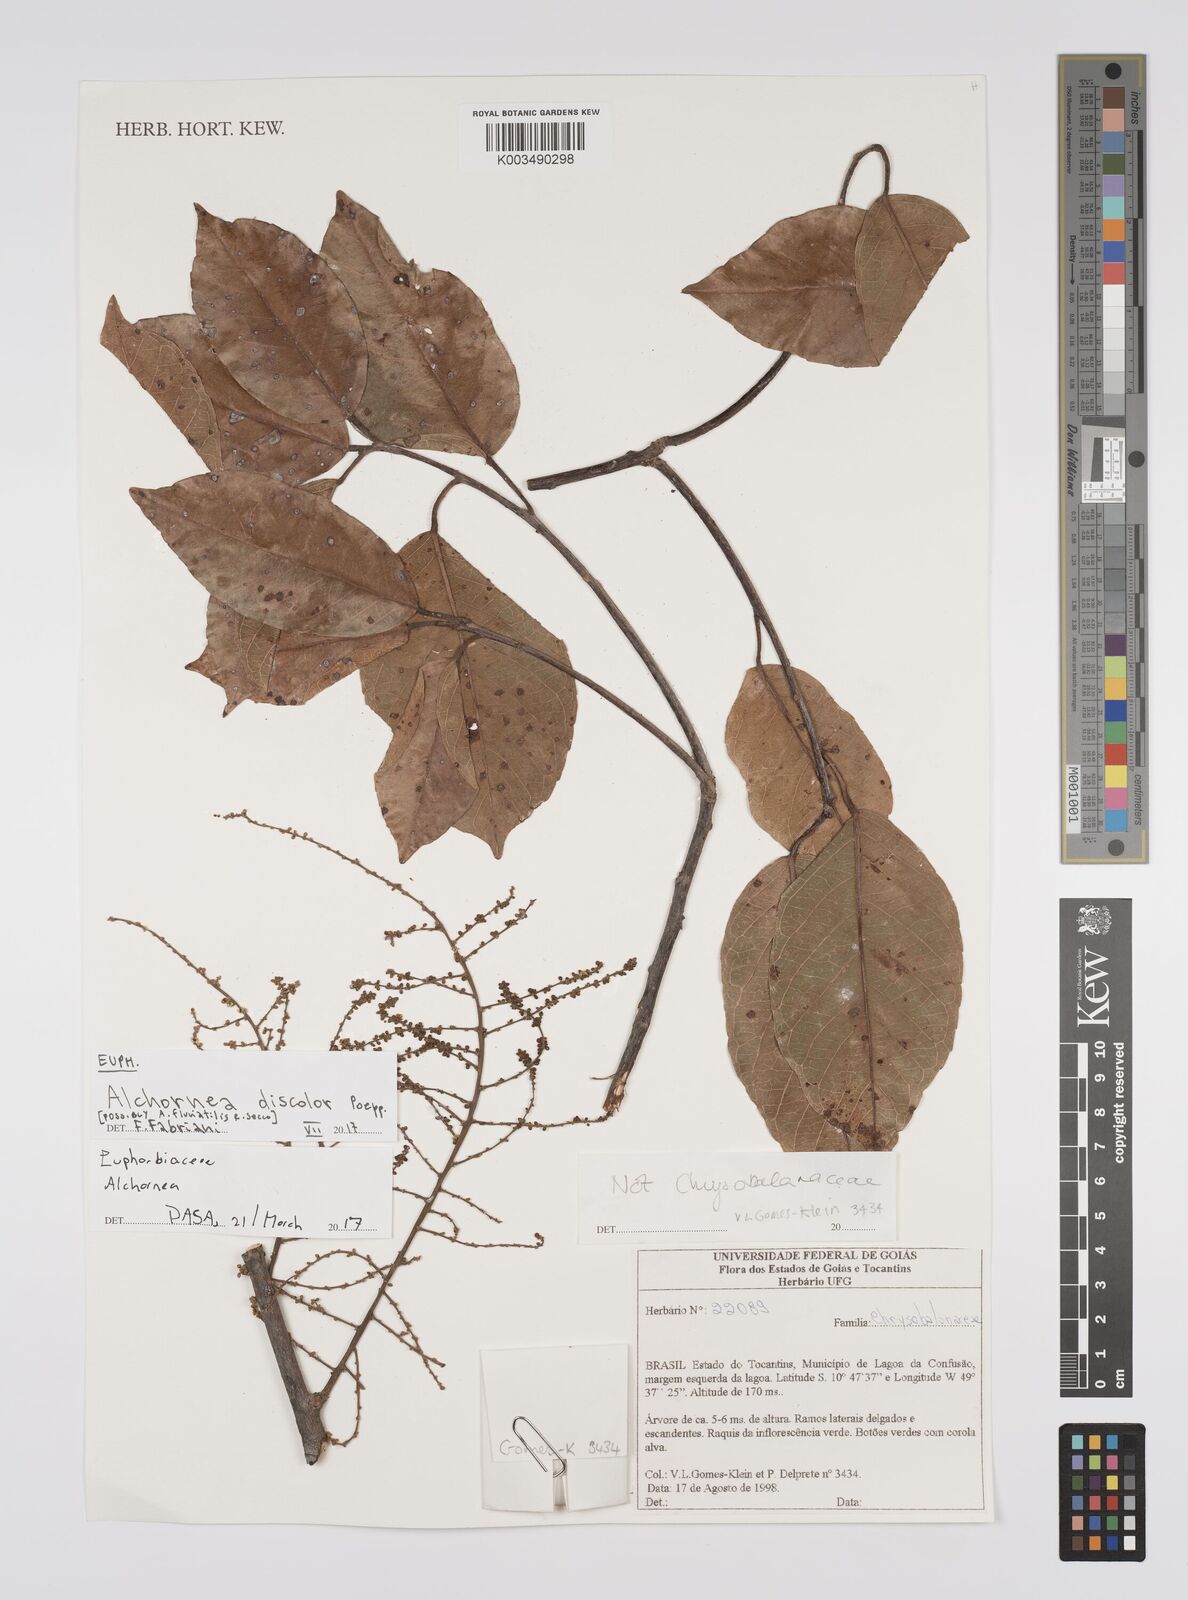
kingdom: Plantae
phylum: Tracheophyta
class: Magnoliopsida
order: Malpighiales
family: Euphorbiaceae
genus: Alchornea
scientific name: Alchornea discolor
